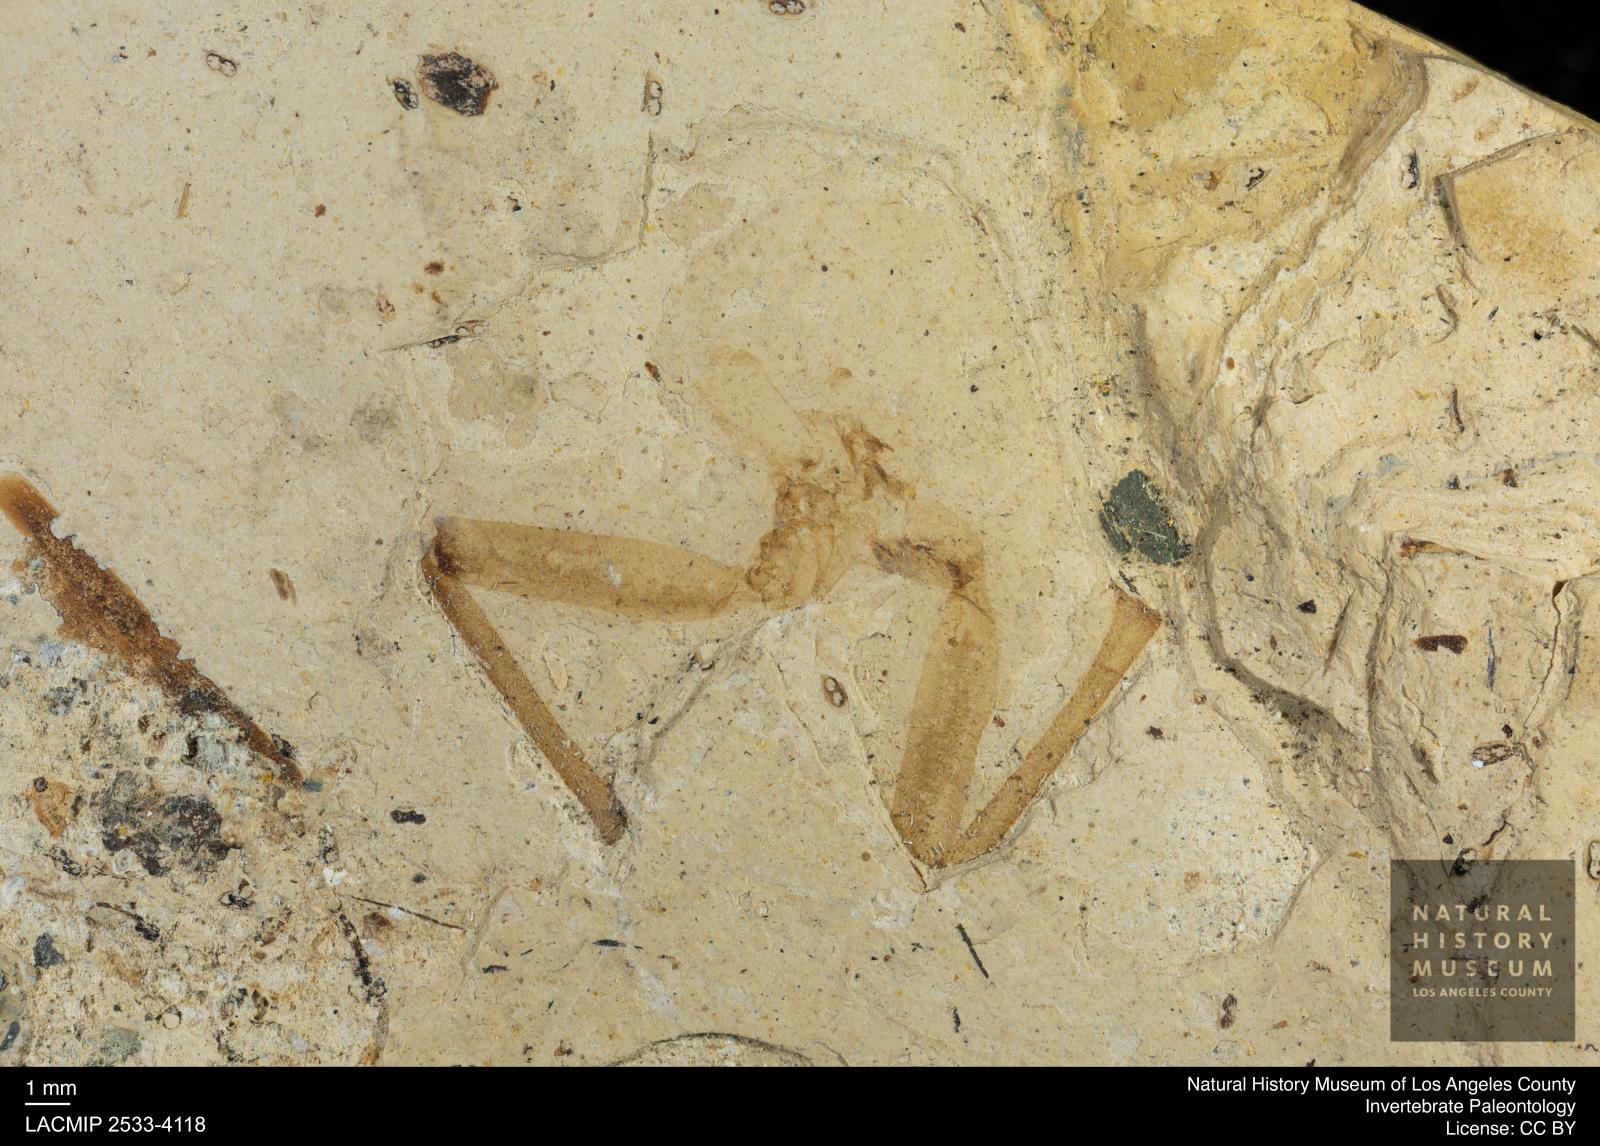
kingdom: Animalia
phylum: Arthropoda
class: Insecta
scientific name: Insecta
